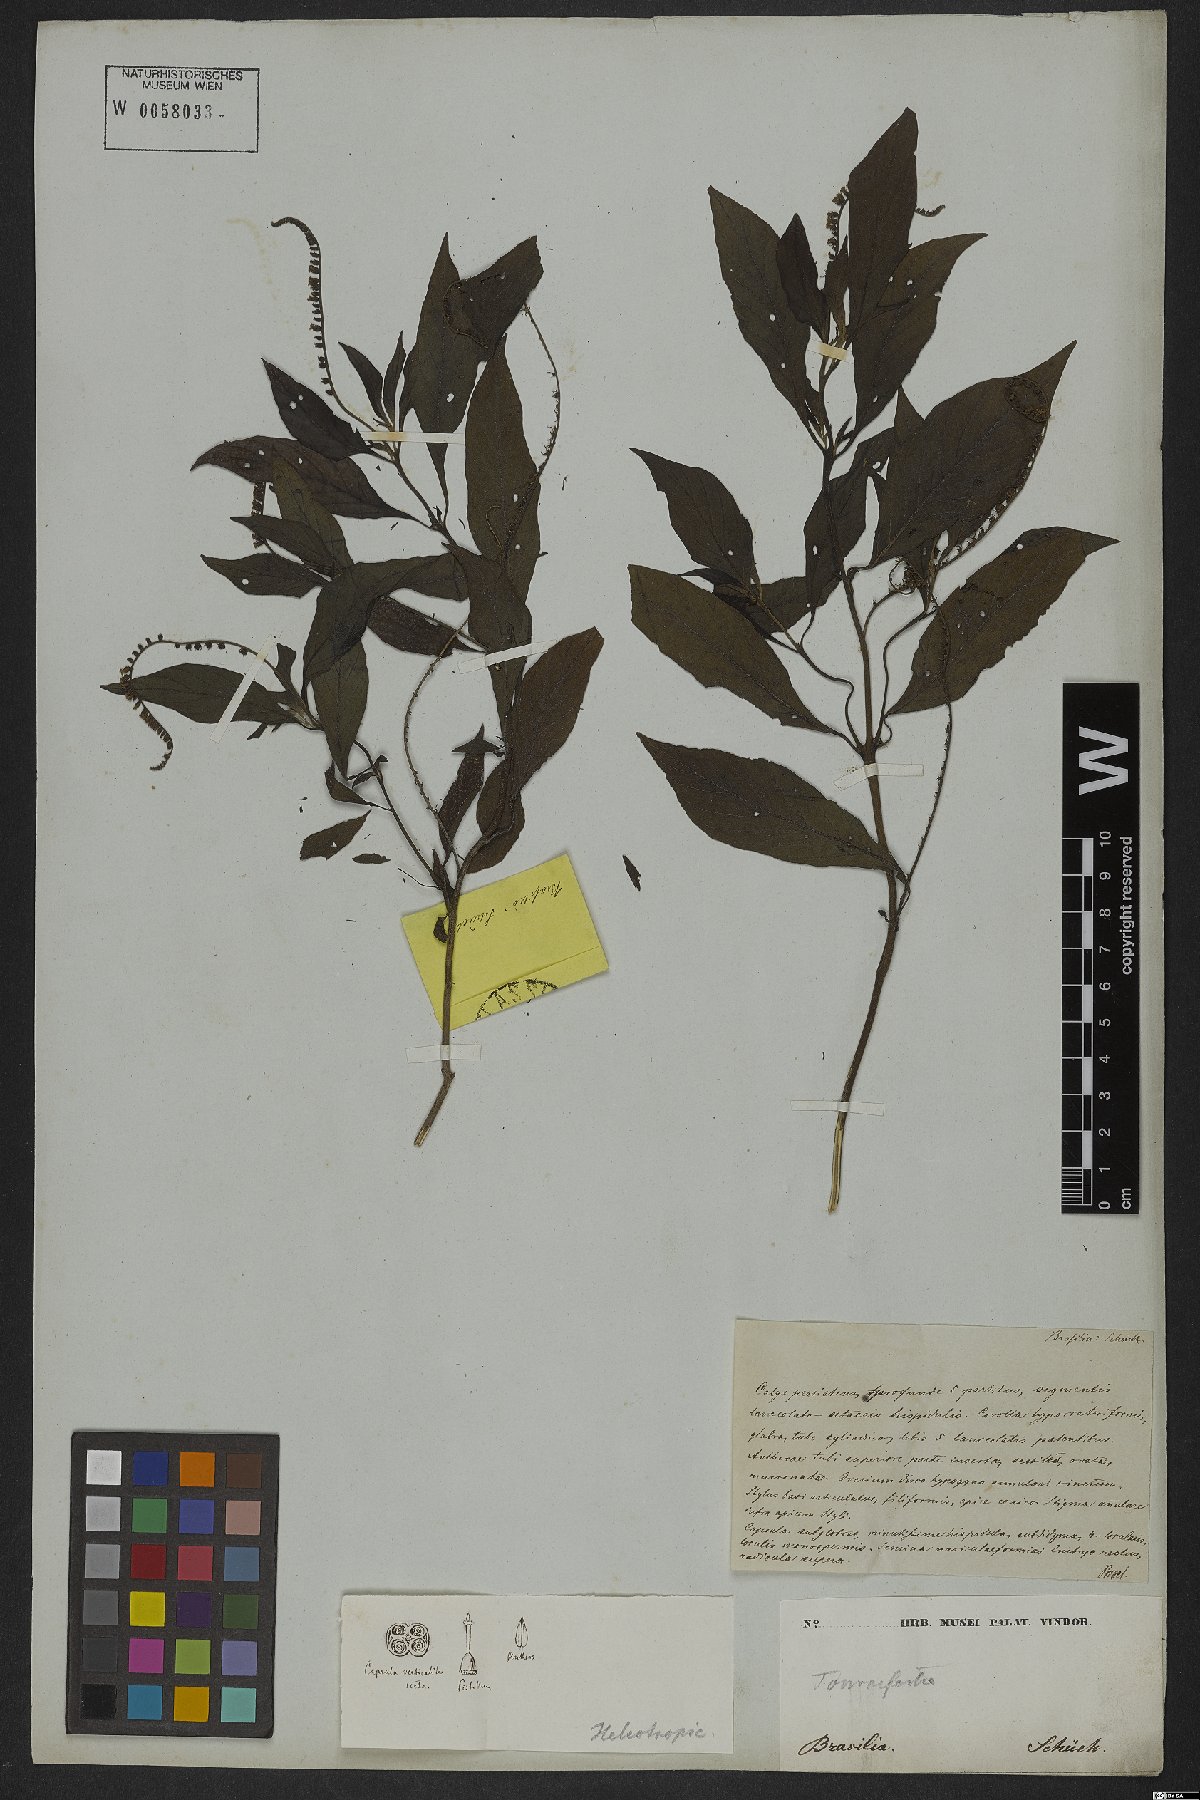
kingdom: Plantae
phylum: Tracheophyta
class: Magnoliopsida
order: Boraginales
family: Heliotropiaceae
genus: Heliotropium
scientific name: Heliotropium transalpinum
